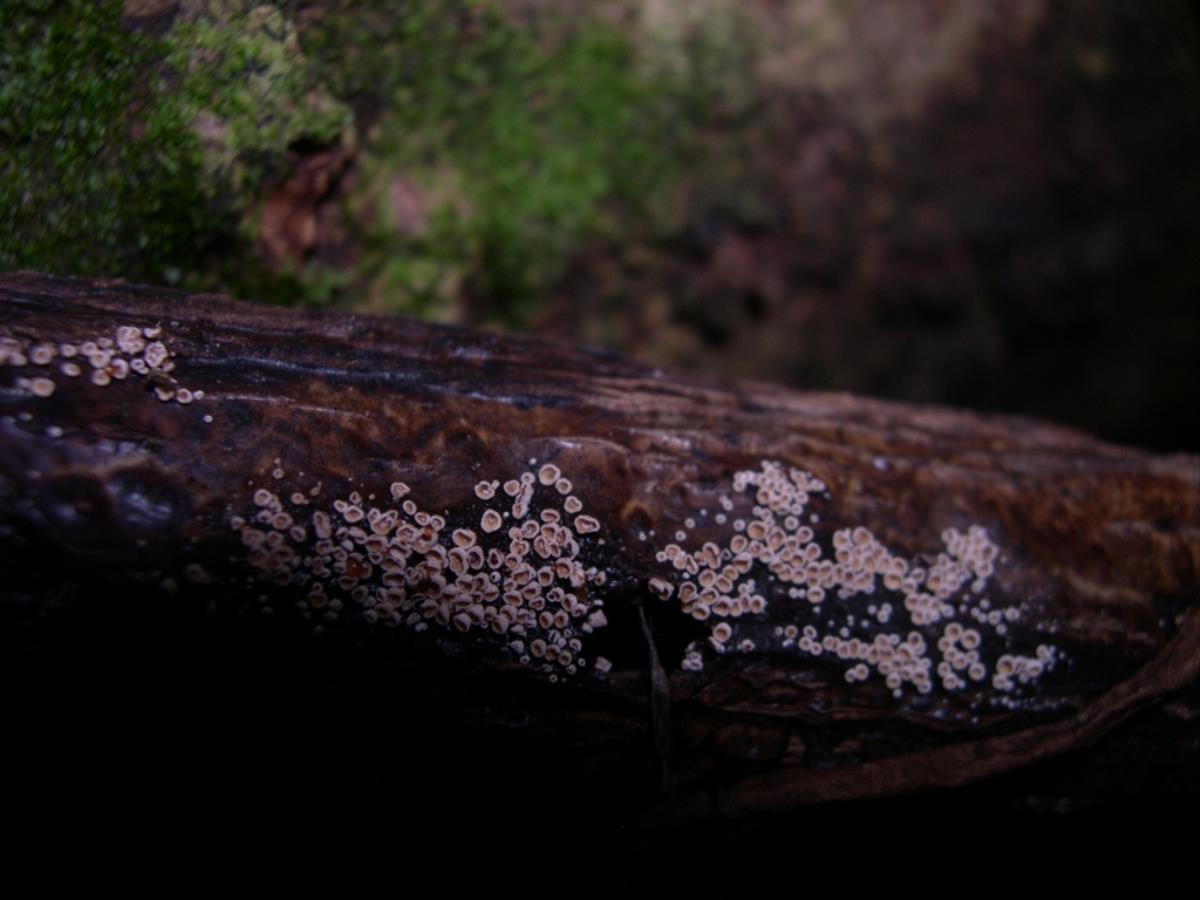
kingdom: Fungi
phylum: Basidiomycota
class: Agaricomycetes
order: Agaricales
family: Chromocyphellaceae
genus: Phaeosolenia
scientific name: Phaeosolenia densa
